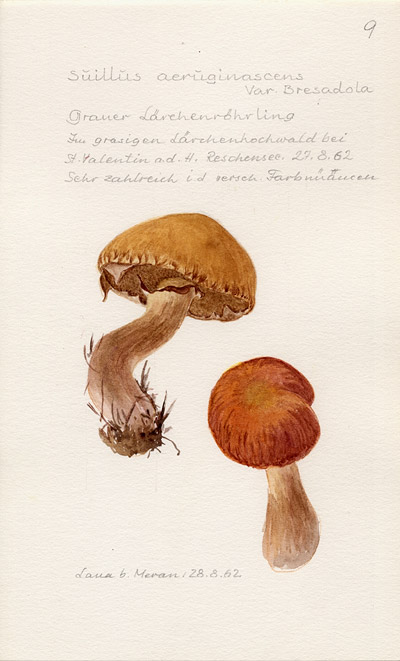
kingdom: Fungi
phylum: Basidiomycota
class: Agaricomycetes
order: Boletales
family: Suillaceae
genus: Suillus
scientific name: Suillus bresadolae
